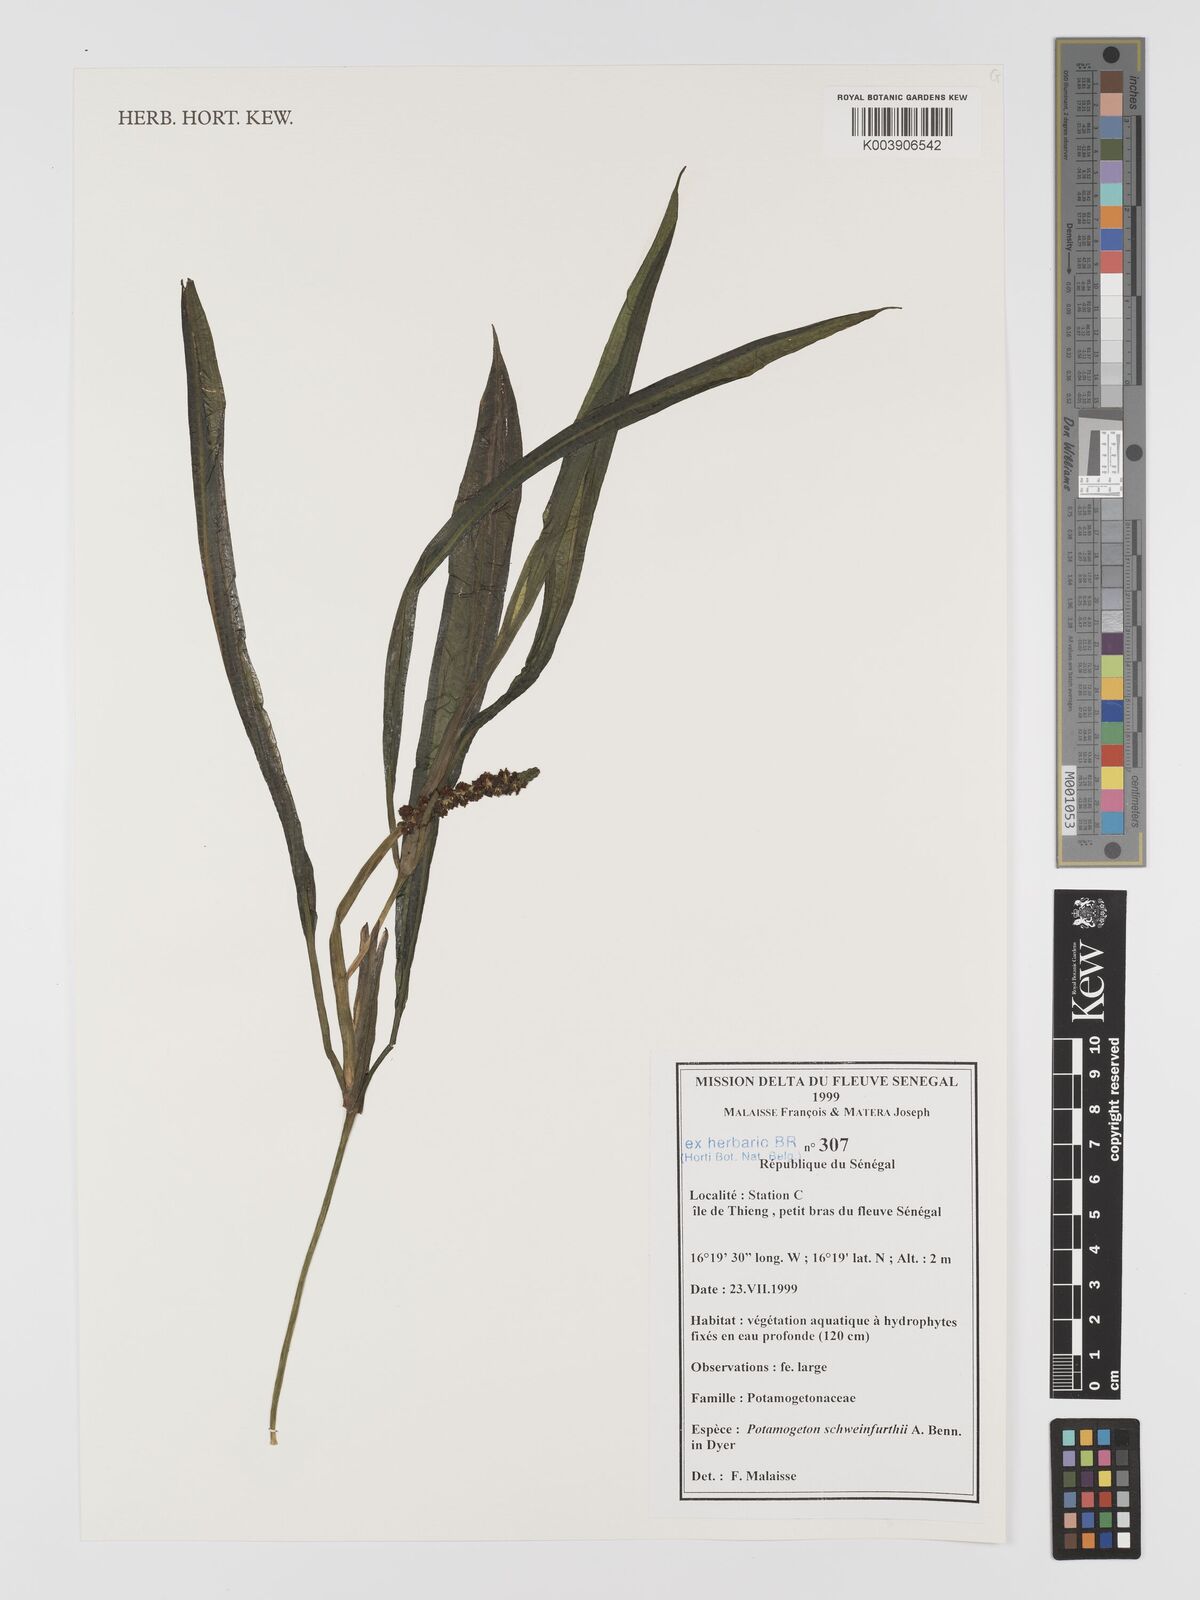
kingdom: Plantae
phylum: Tracheophyta
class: Liliopsida
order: Alismatales
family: Potamogetonaceae
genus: Potamogeton
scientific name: Potamogeton schweinfurthii
